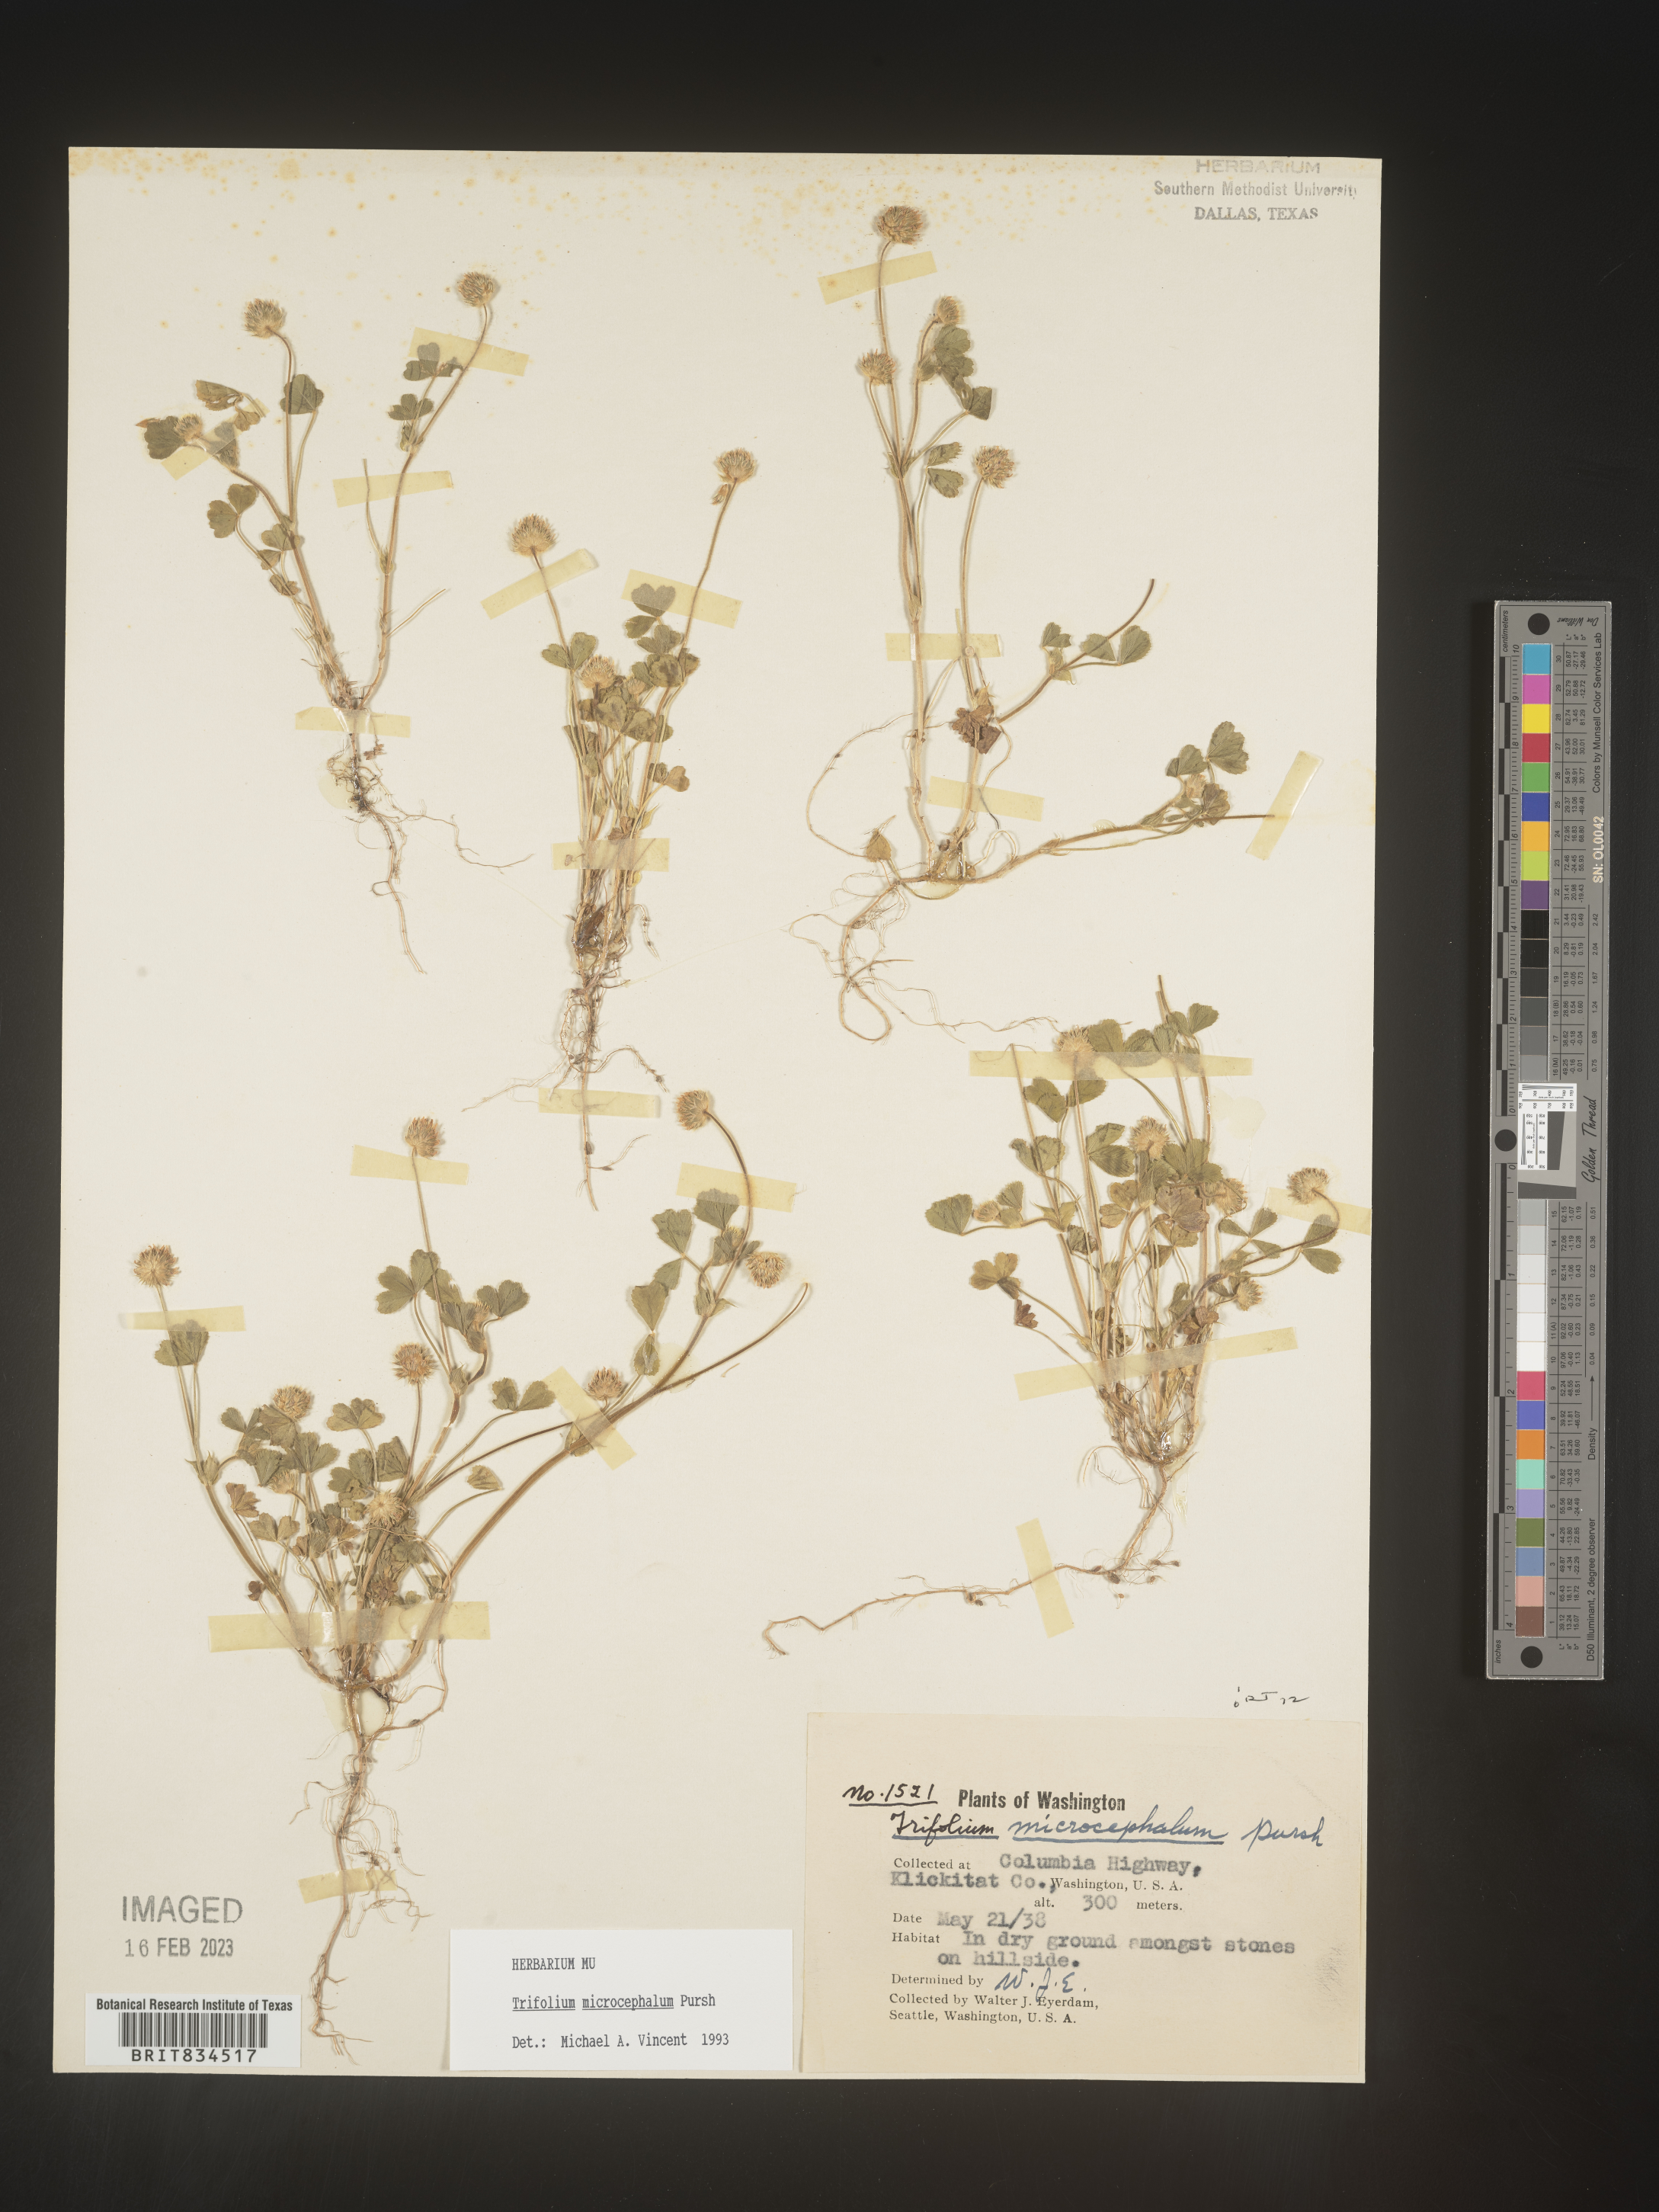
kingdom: Plantae
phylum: Tracheophyta
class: Magnoliopsida
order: Fabales
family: Fabaceae
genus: Trifolium
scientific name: Trifolium
